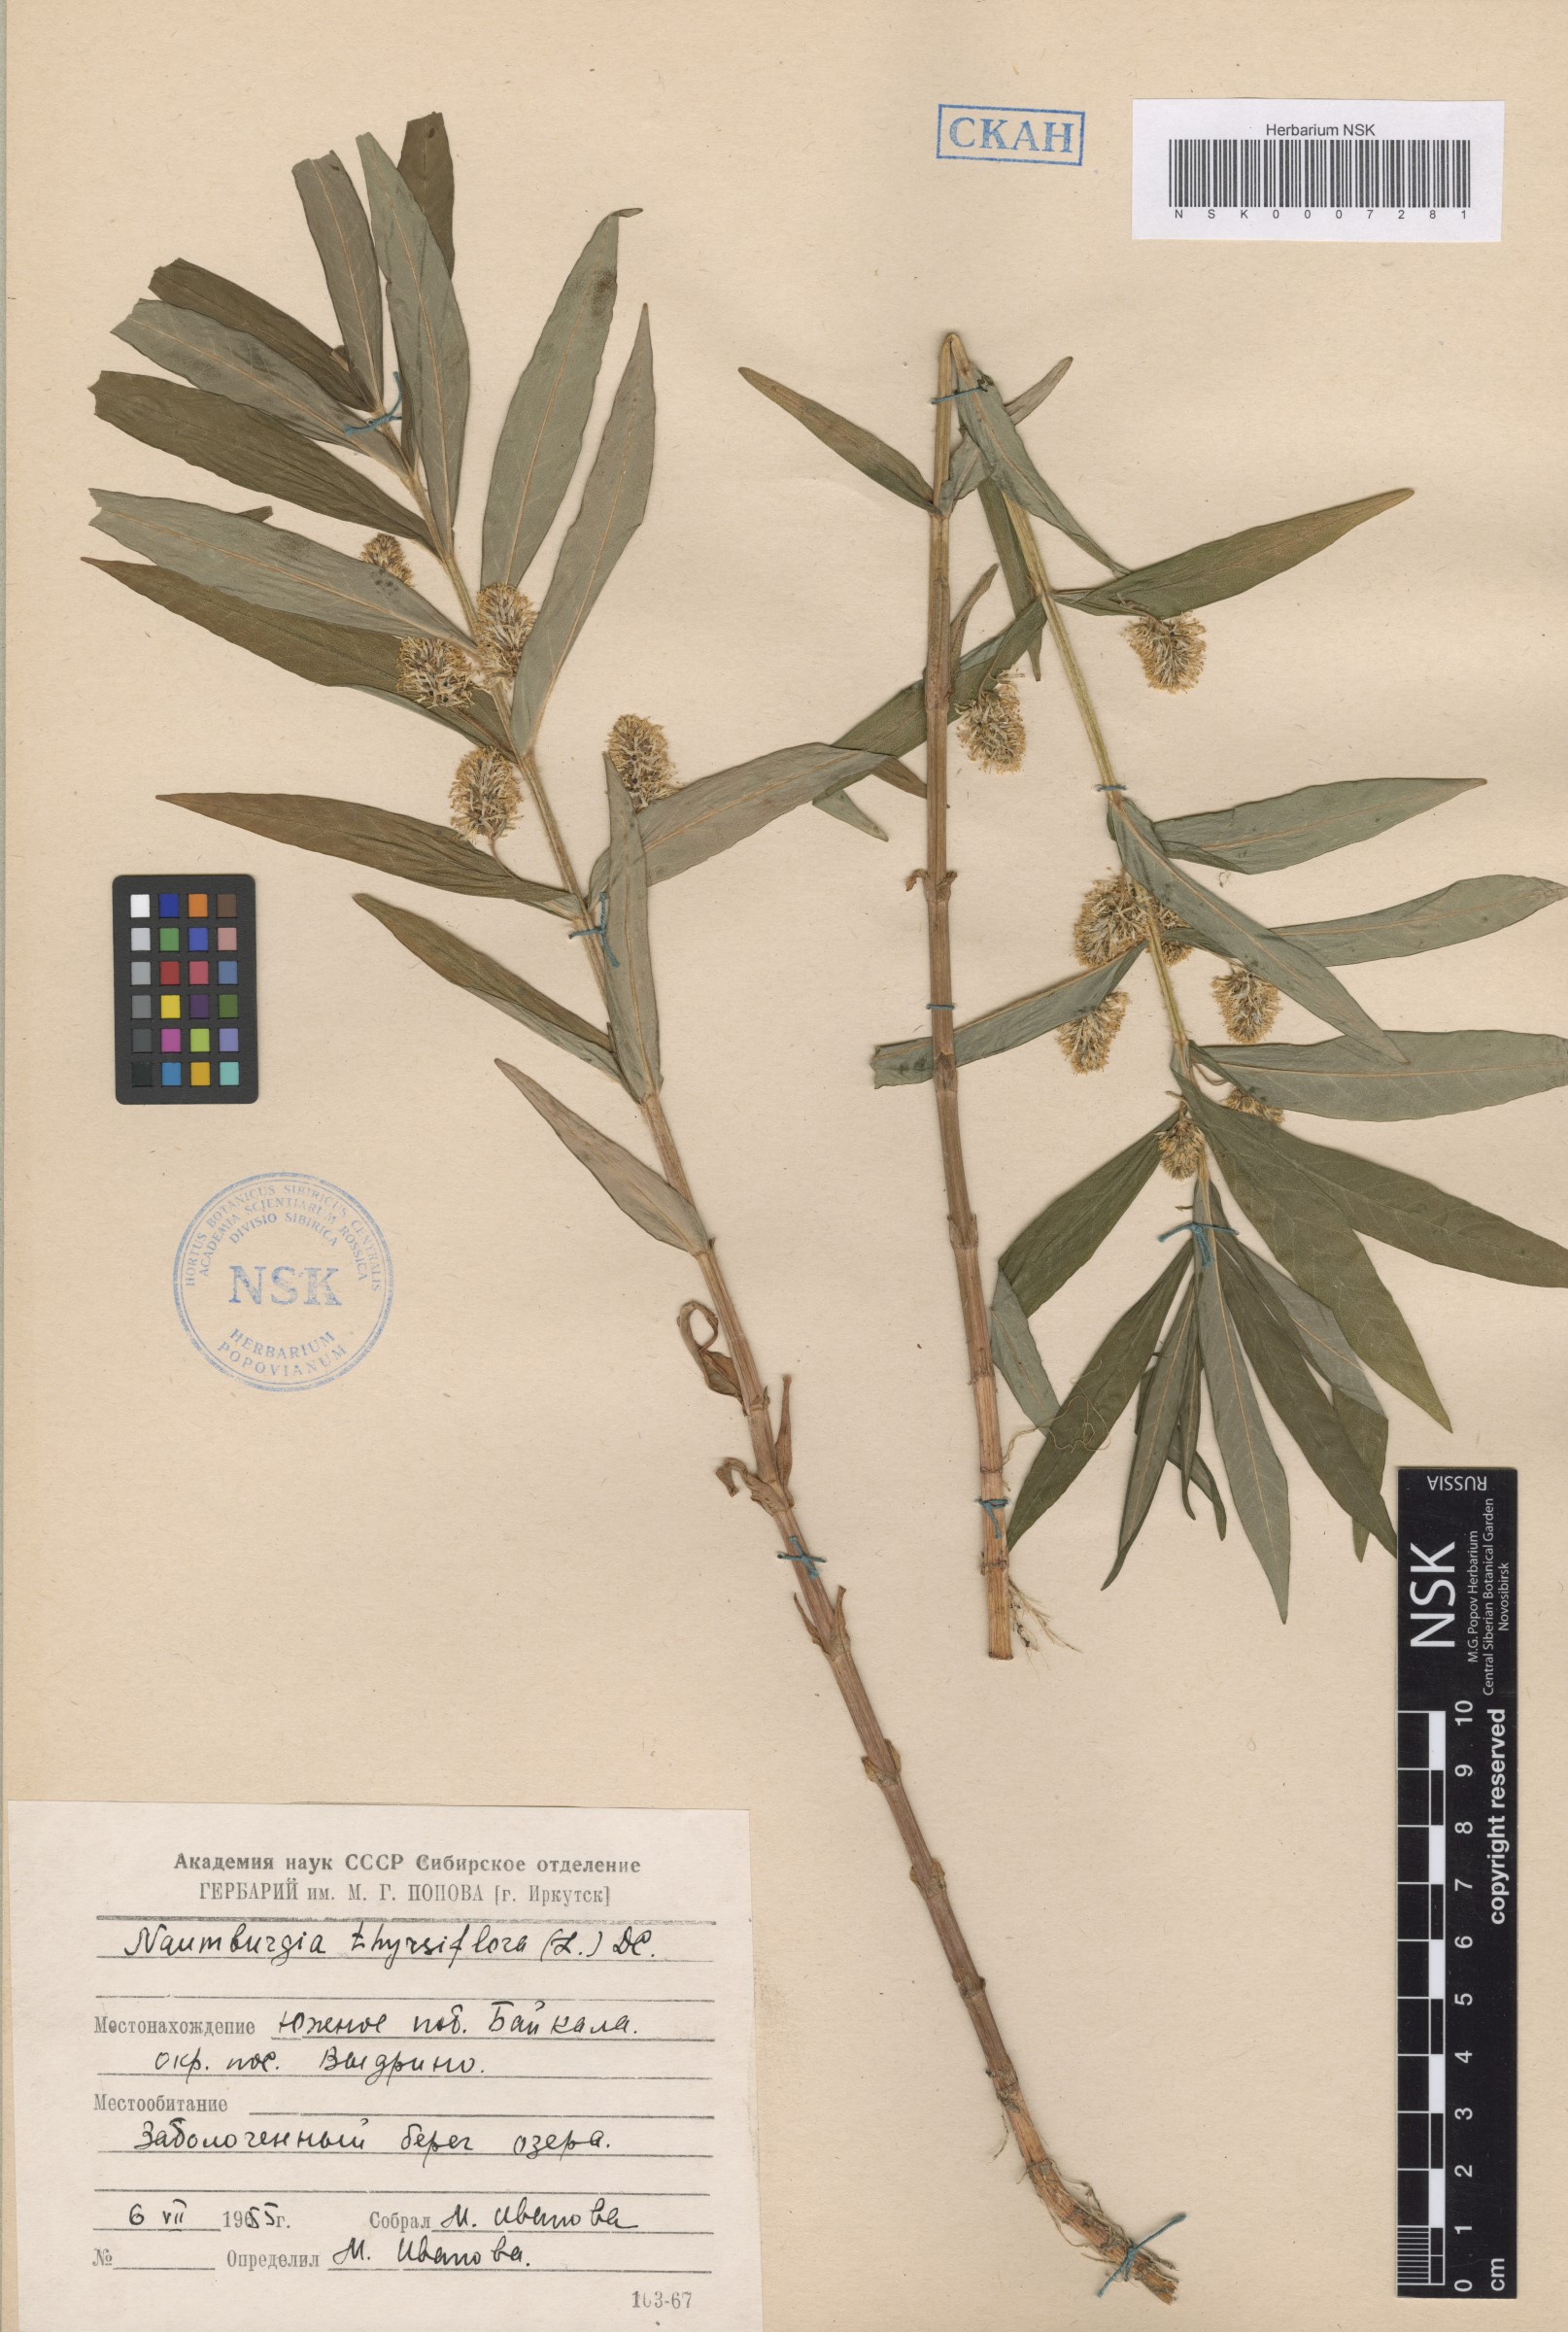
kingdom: Plantae
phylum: Tracheophyta
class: Magnoliopsida
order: Ericales
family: Primulaceae
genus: Lysimachia
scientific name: Lysimachia thyrsiflora
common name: Tufted loosestrife
